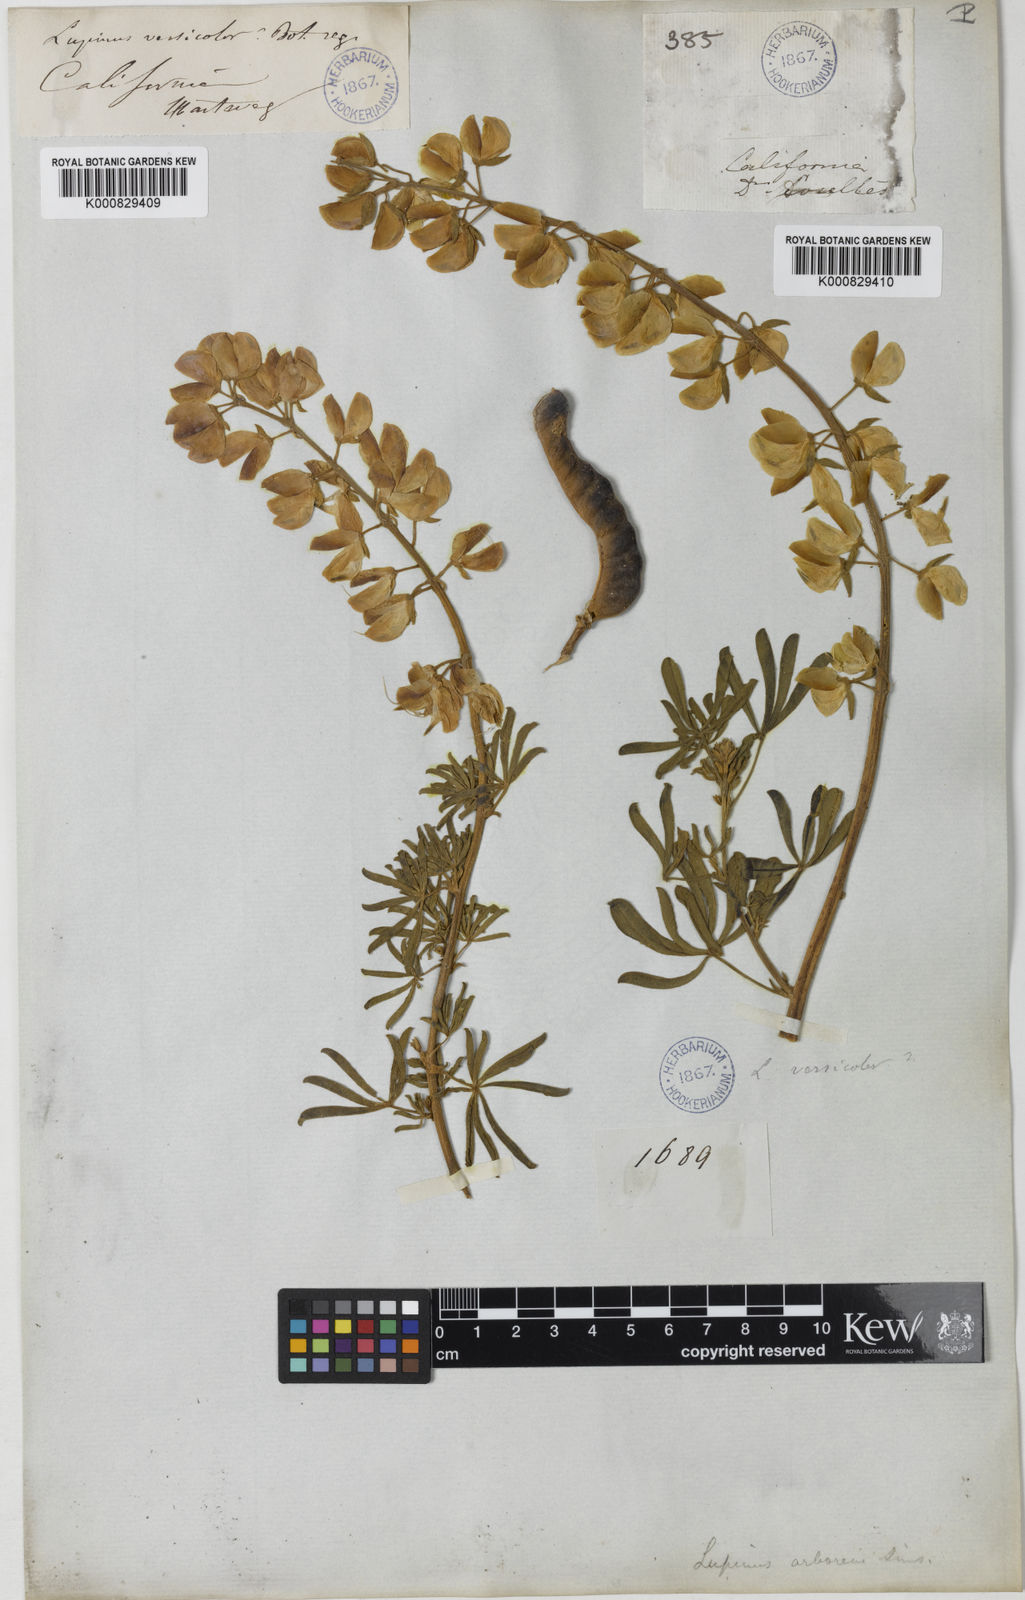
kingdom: Plantae
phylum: Tracheophyta
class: Magnoliopsida
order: Fabales
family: Fabaceae
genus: Lupinus
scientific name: Lupinus arboreus
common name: Yellow bush lupine
